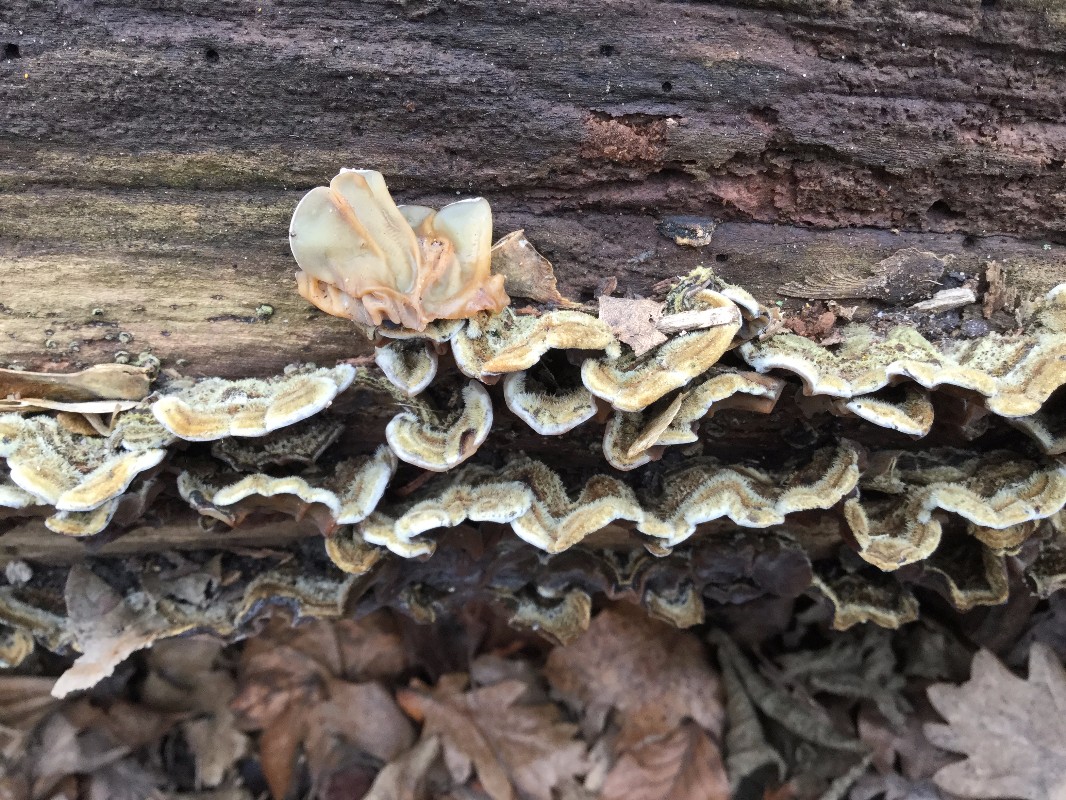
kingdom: Fungi
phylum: Basidiomycota
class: Agaricomycetes
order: Auriculariales
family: Auriculariaceae
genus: Auricularia
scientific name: Auricularia mesenterica
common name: håret judasøre
